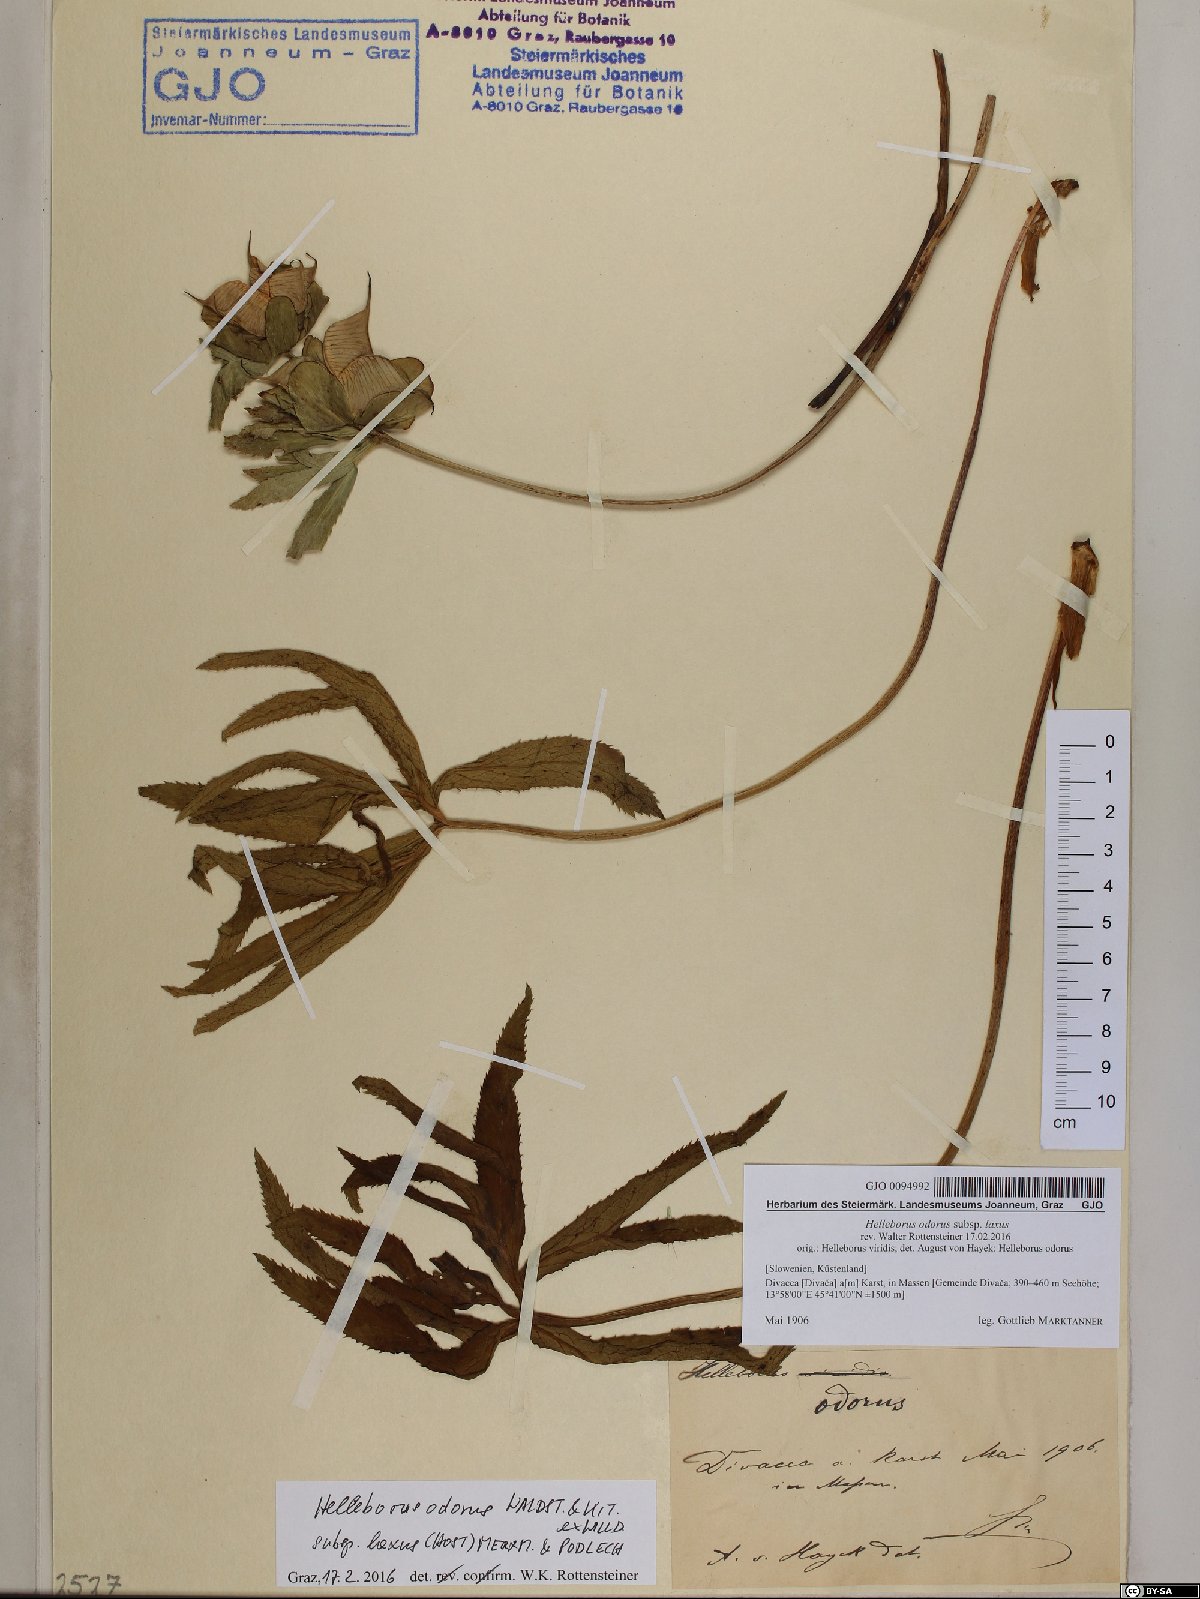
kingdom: Plantae
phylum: Tracheophyta
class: Magnoliopsida
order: Ranunculales
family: Ranunculaceae
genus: Helleborus
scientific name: Helleborus multifidus
